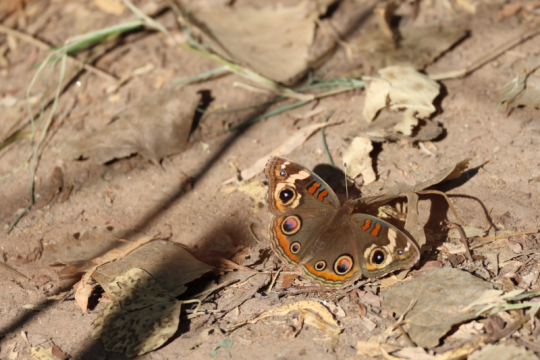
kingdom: Animalia
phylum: Arthropoda
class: Insecta
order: Lepidoptera
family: Nymphalidae
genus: Junonia
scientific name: Junonia coenia
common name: Common Buckeye
